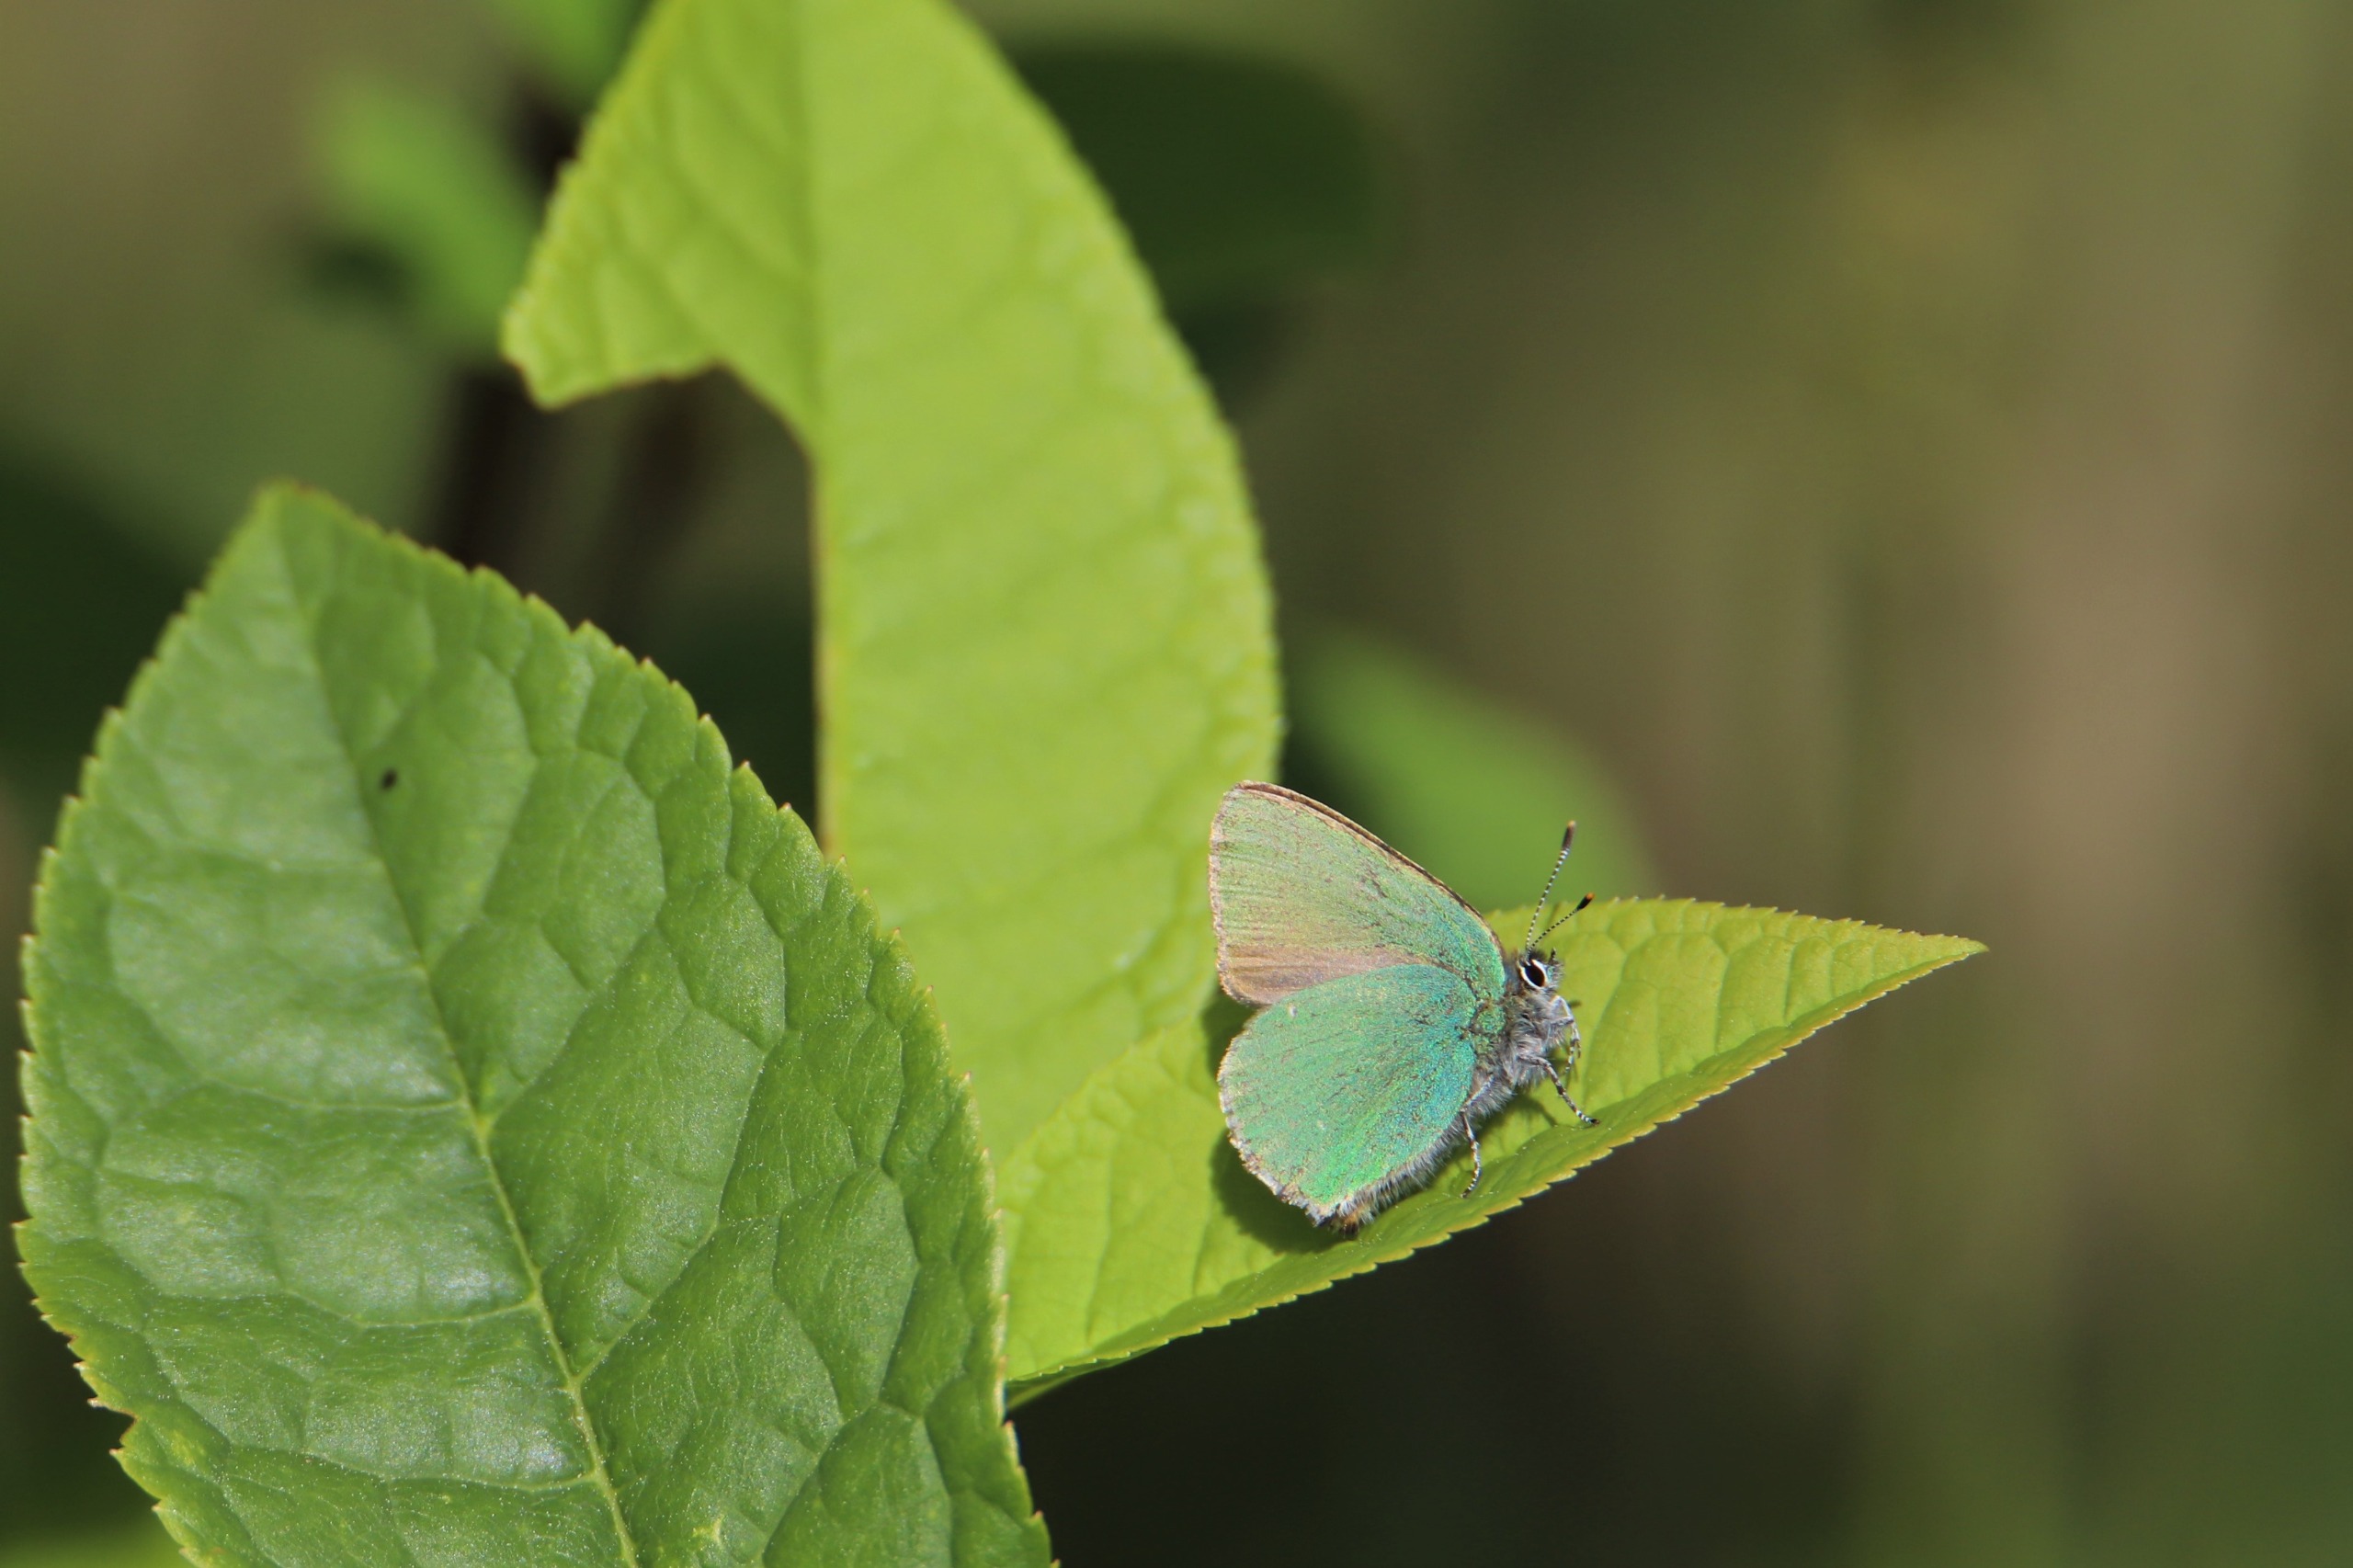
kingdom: Animalia
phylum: Arthropoda
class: Insecta
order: Lepidoptera
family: Lycaenidae
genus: Callophrys
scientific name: Callophrys rubi
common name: Grøn busksommerfugl
